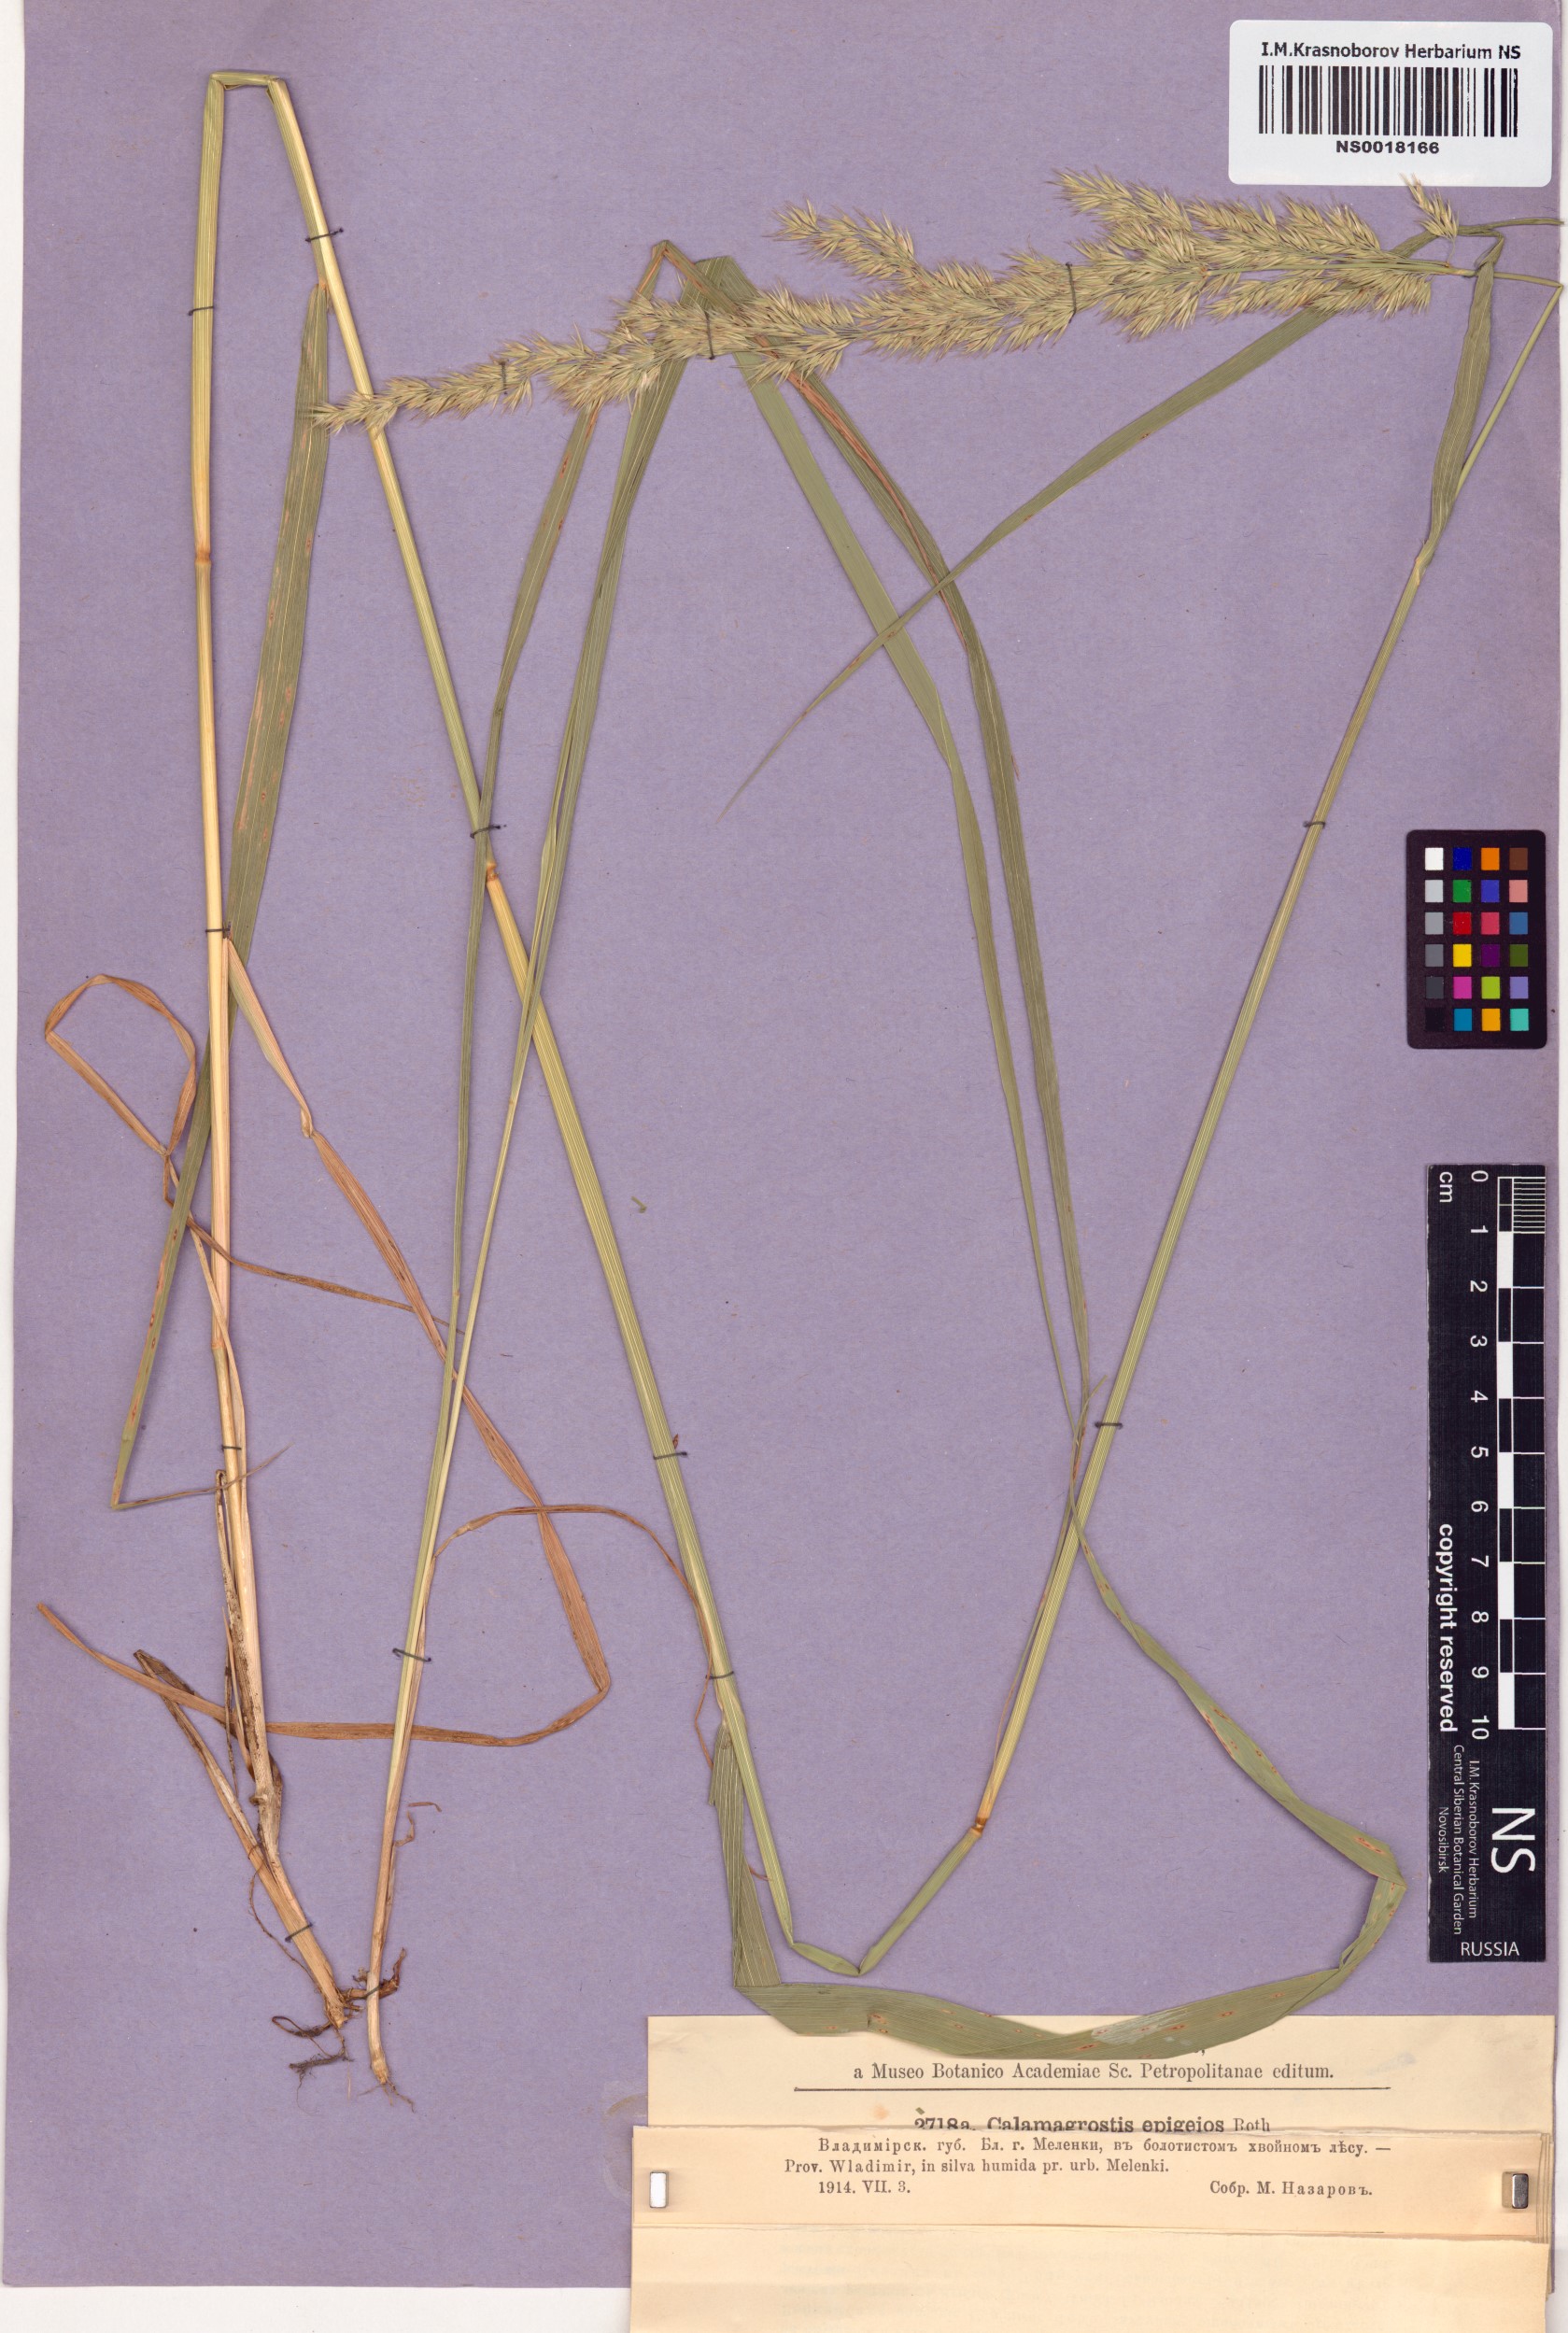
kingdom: Plantae
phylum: Tracheophyta
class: Liliopsida
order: Poales
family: Poaceae
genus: Calamagrostis
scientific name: Calamagrostis epigejos
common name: Wood small-reed
